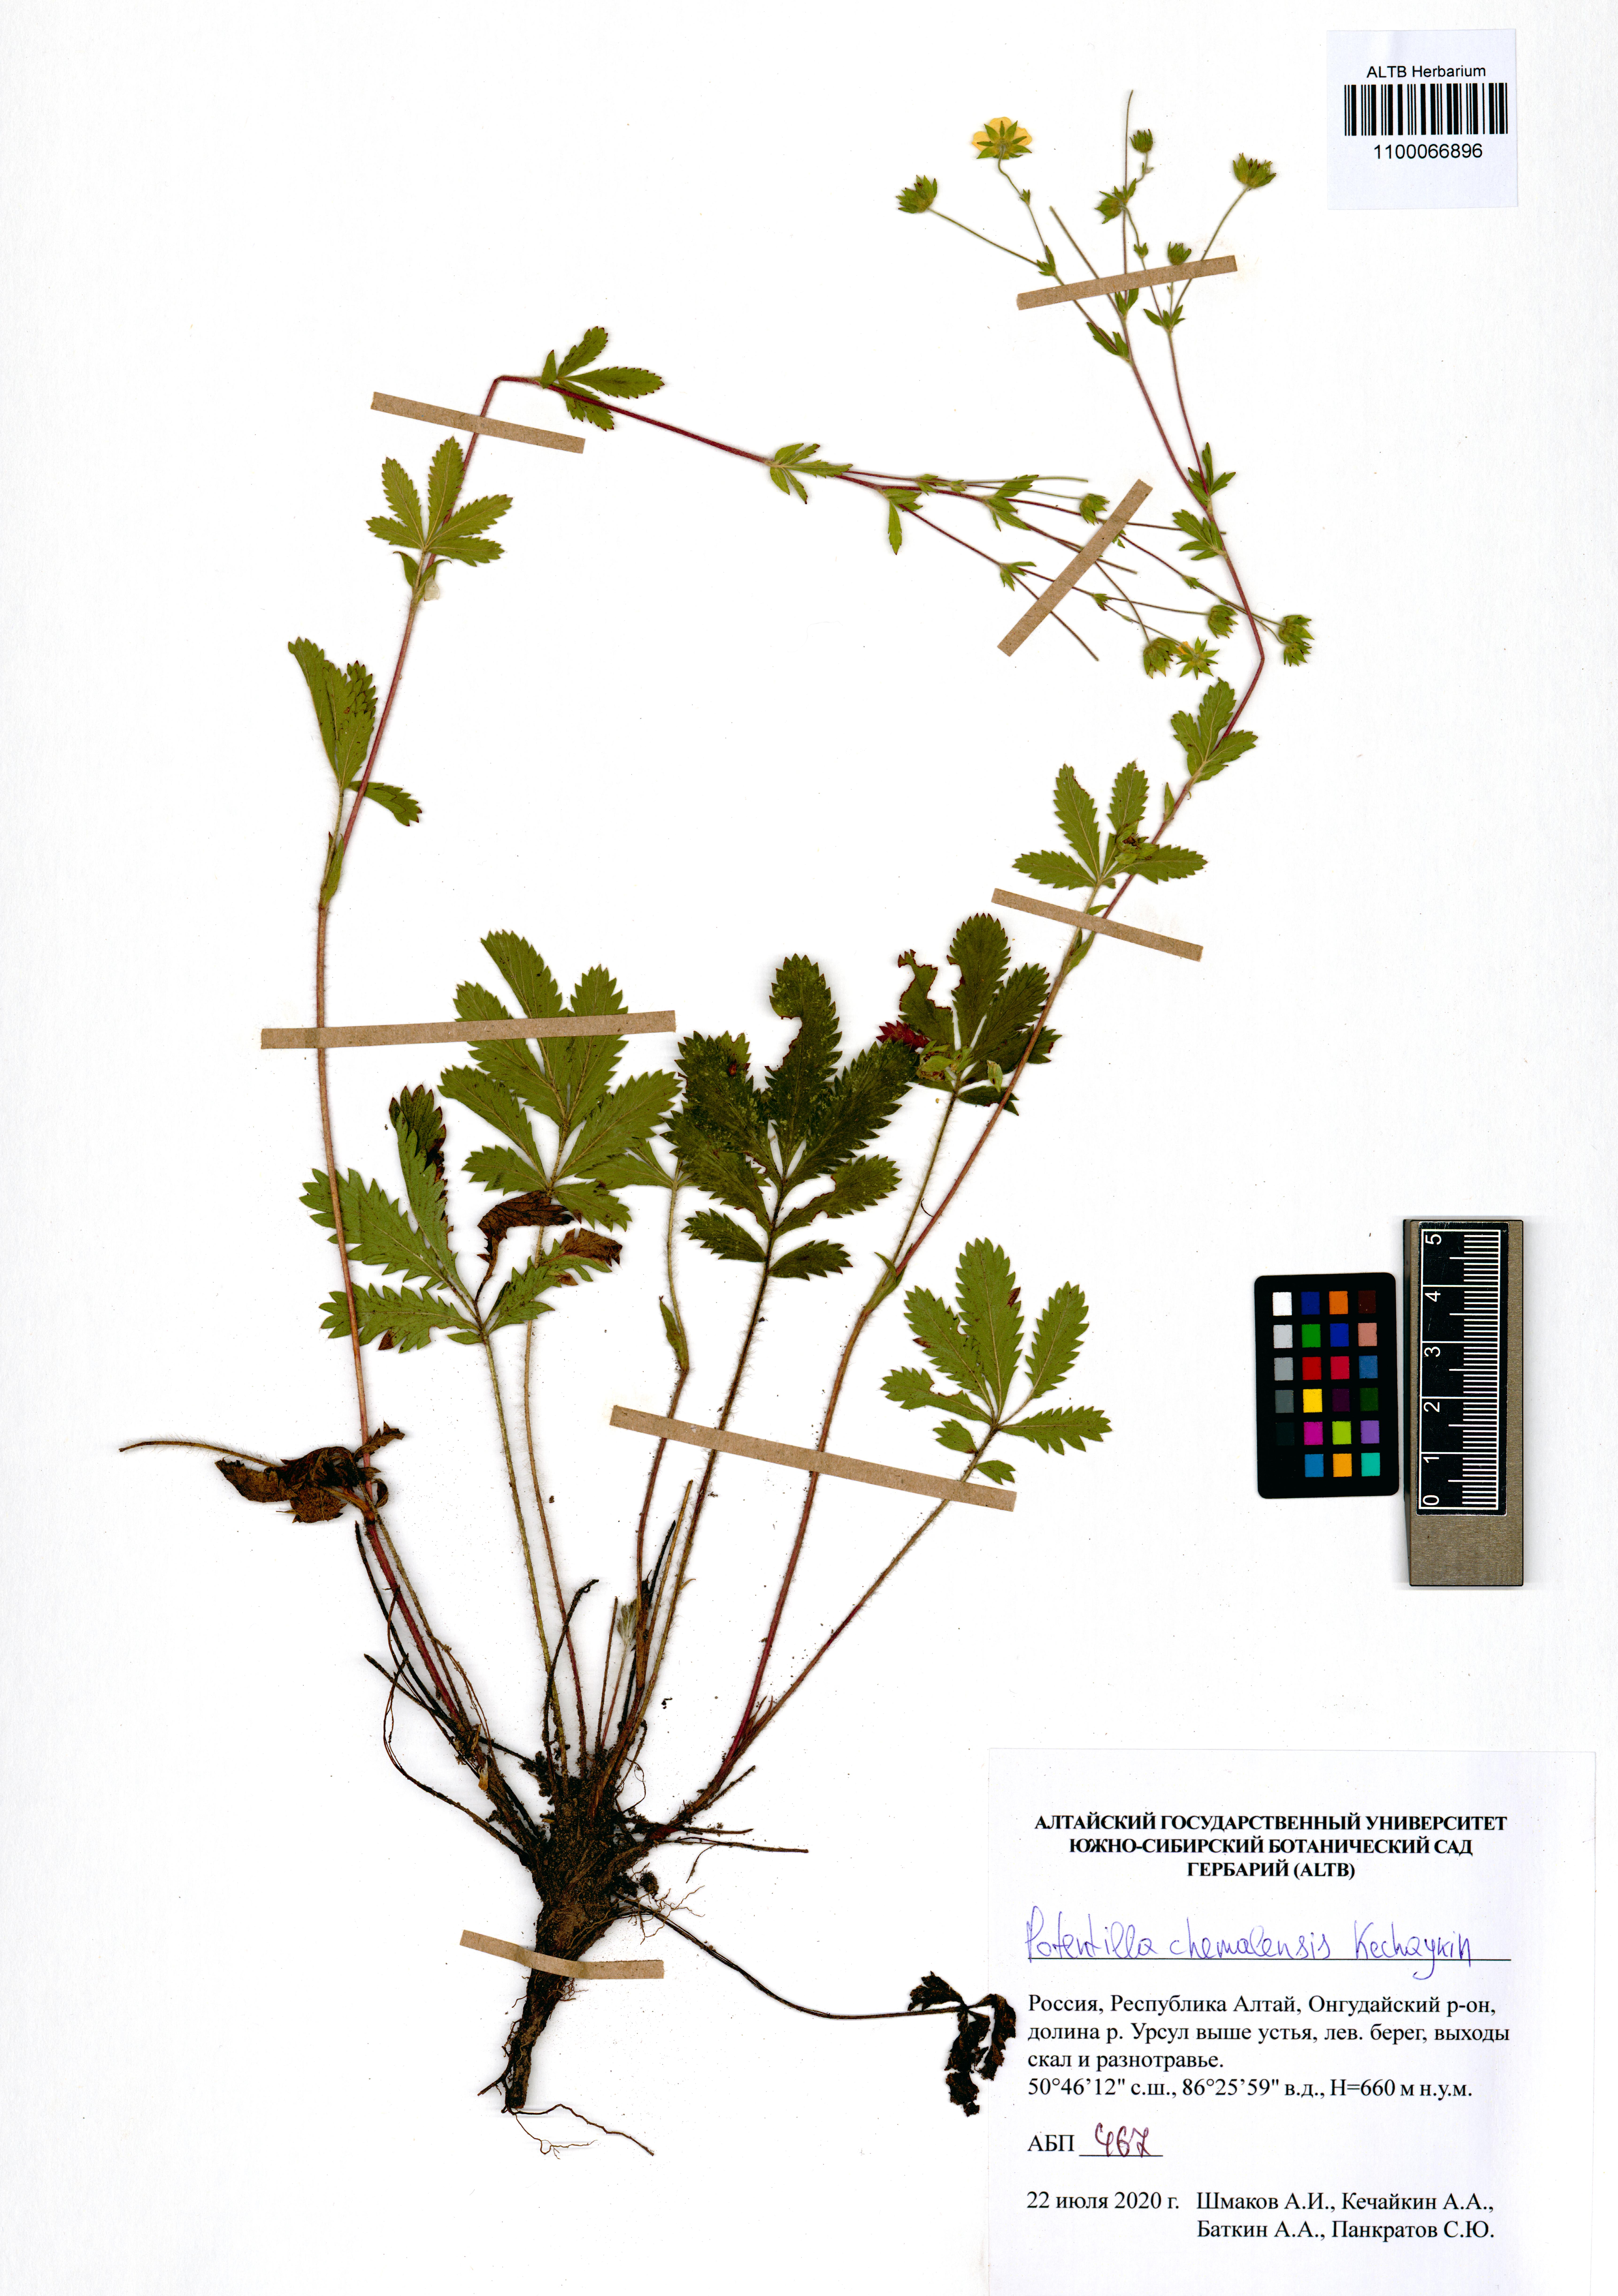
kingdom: Plantae
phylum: Tracheophyta
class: Magnoliopsida
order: Rosales
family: Rosaceae
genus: Potentilla
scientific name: Potentilla chemalensis
